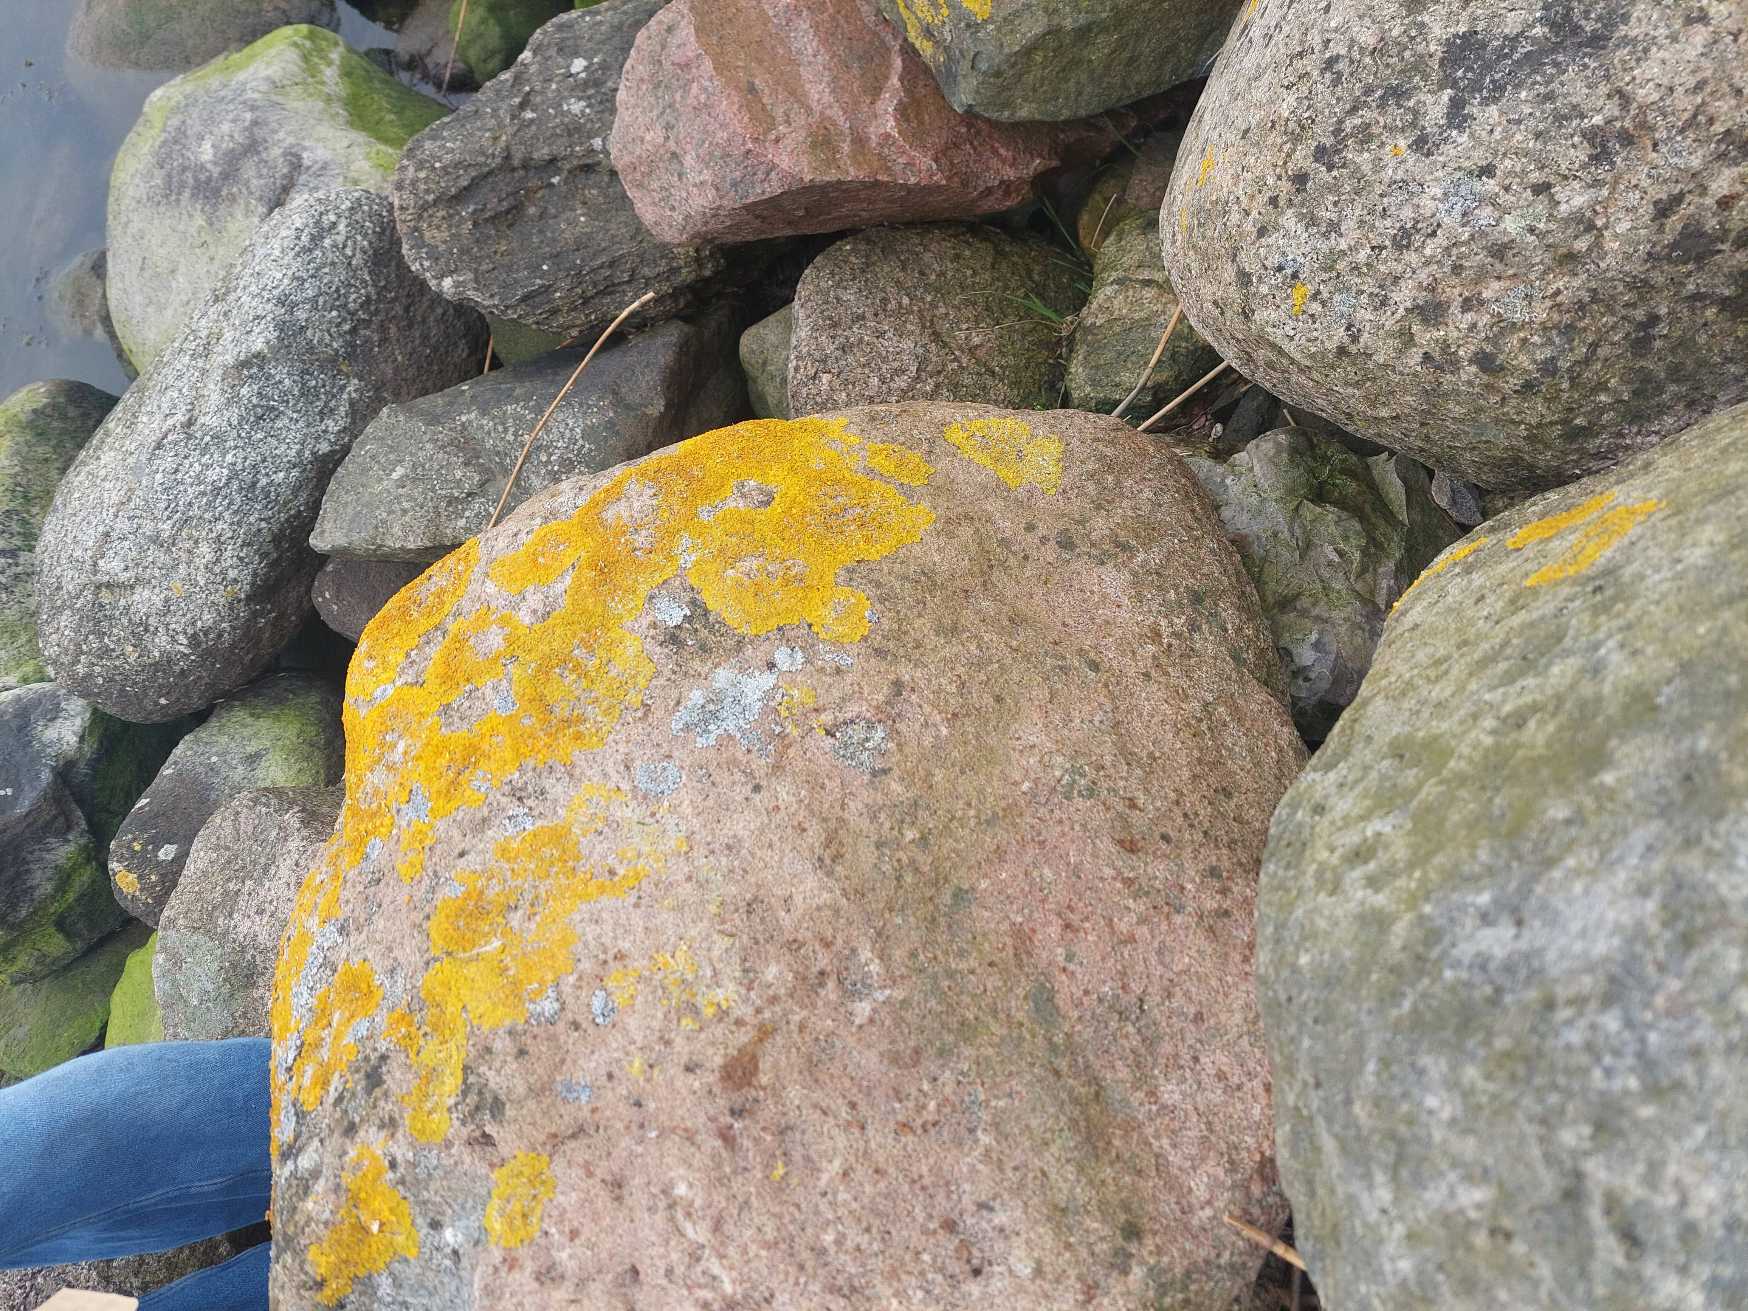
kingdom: Fungi
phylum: Ascomycota
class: Lecanoromycetes
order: Teloschistales
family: Teloschistaceae
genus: Xanthoria
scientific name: Xanthoria parietina
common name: Almindelig væggelav
